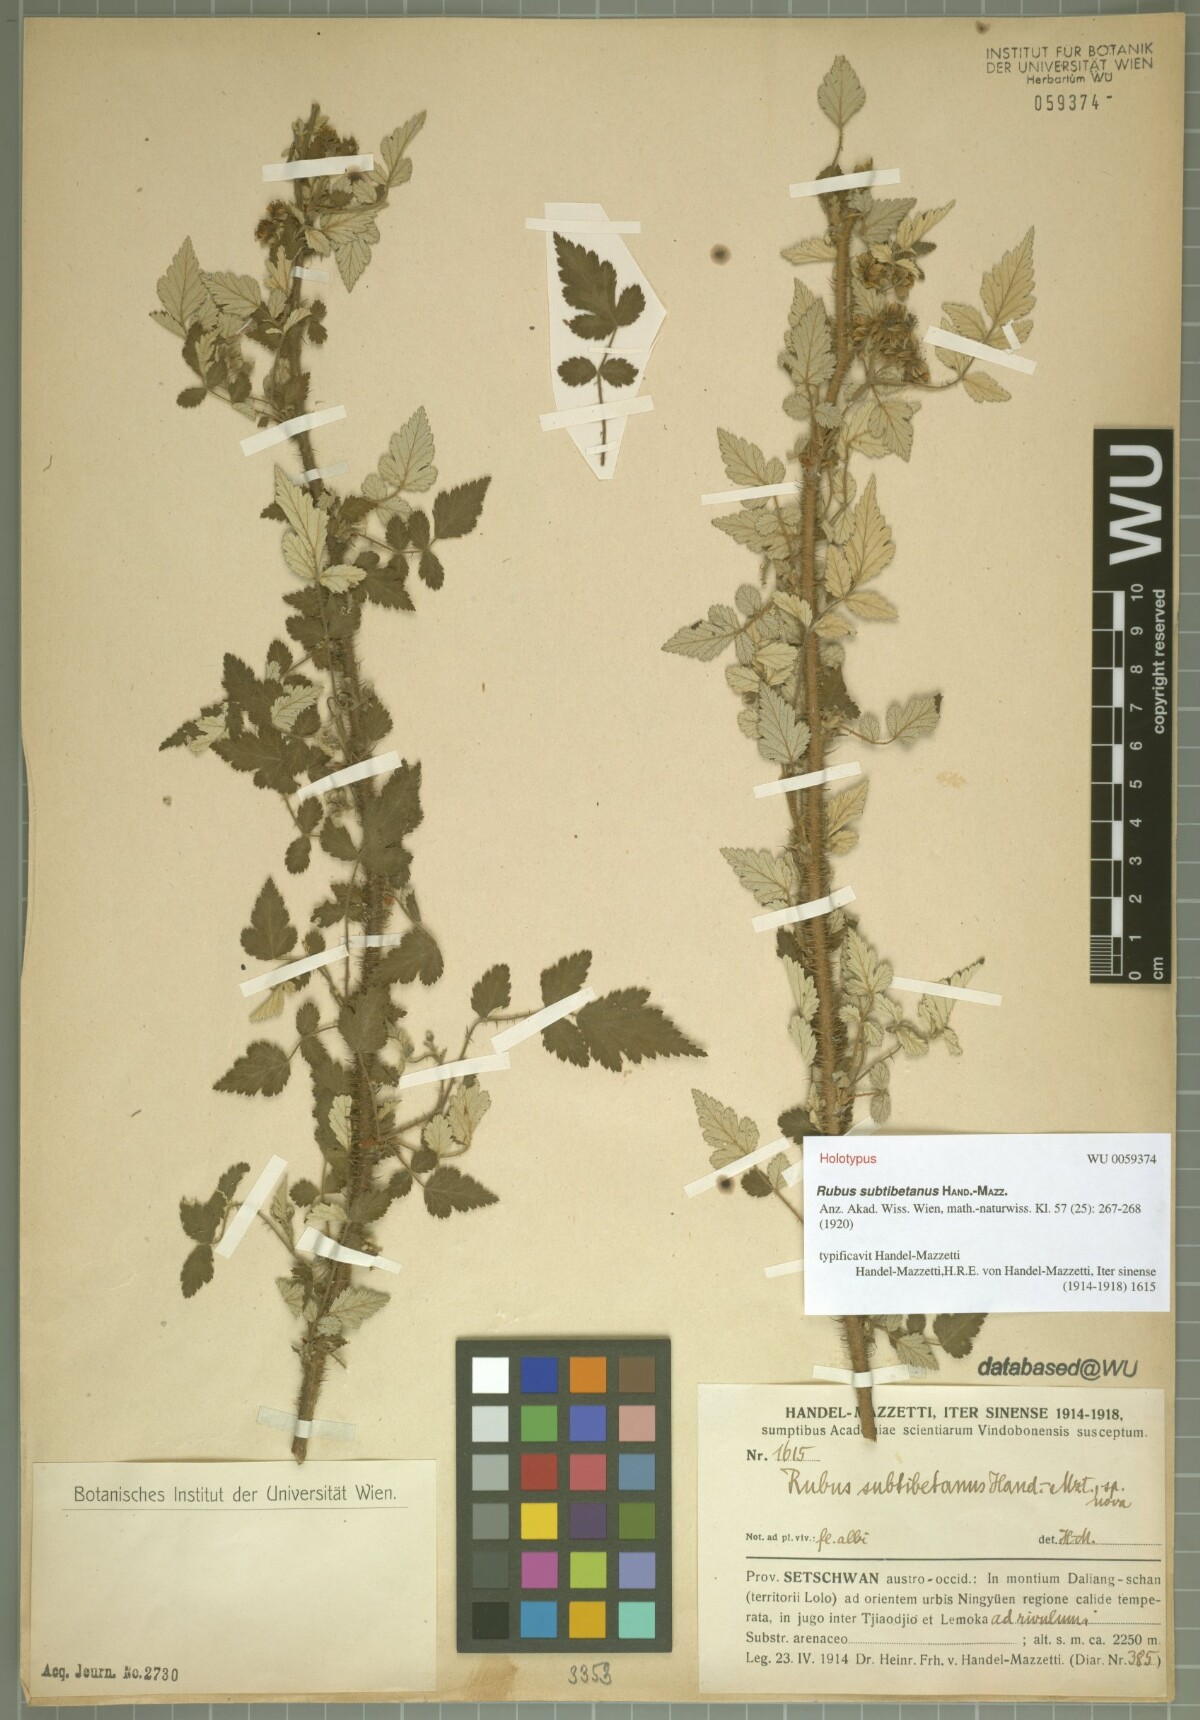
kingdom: Plantae
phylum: Tracheophyta
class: Magnoliopsida
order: Rosales
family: Rosaceae
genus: Rubus
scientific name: Rubus subtibetanus
